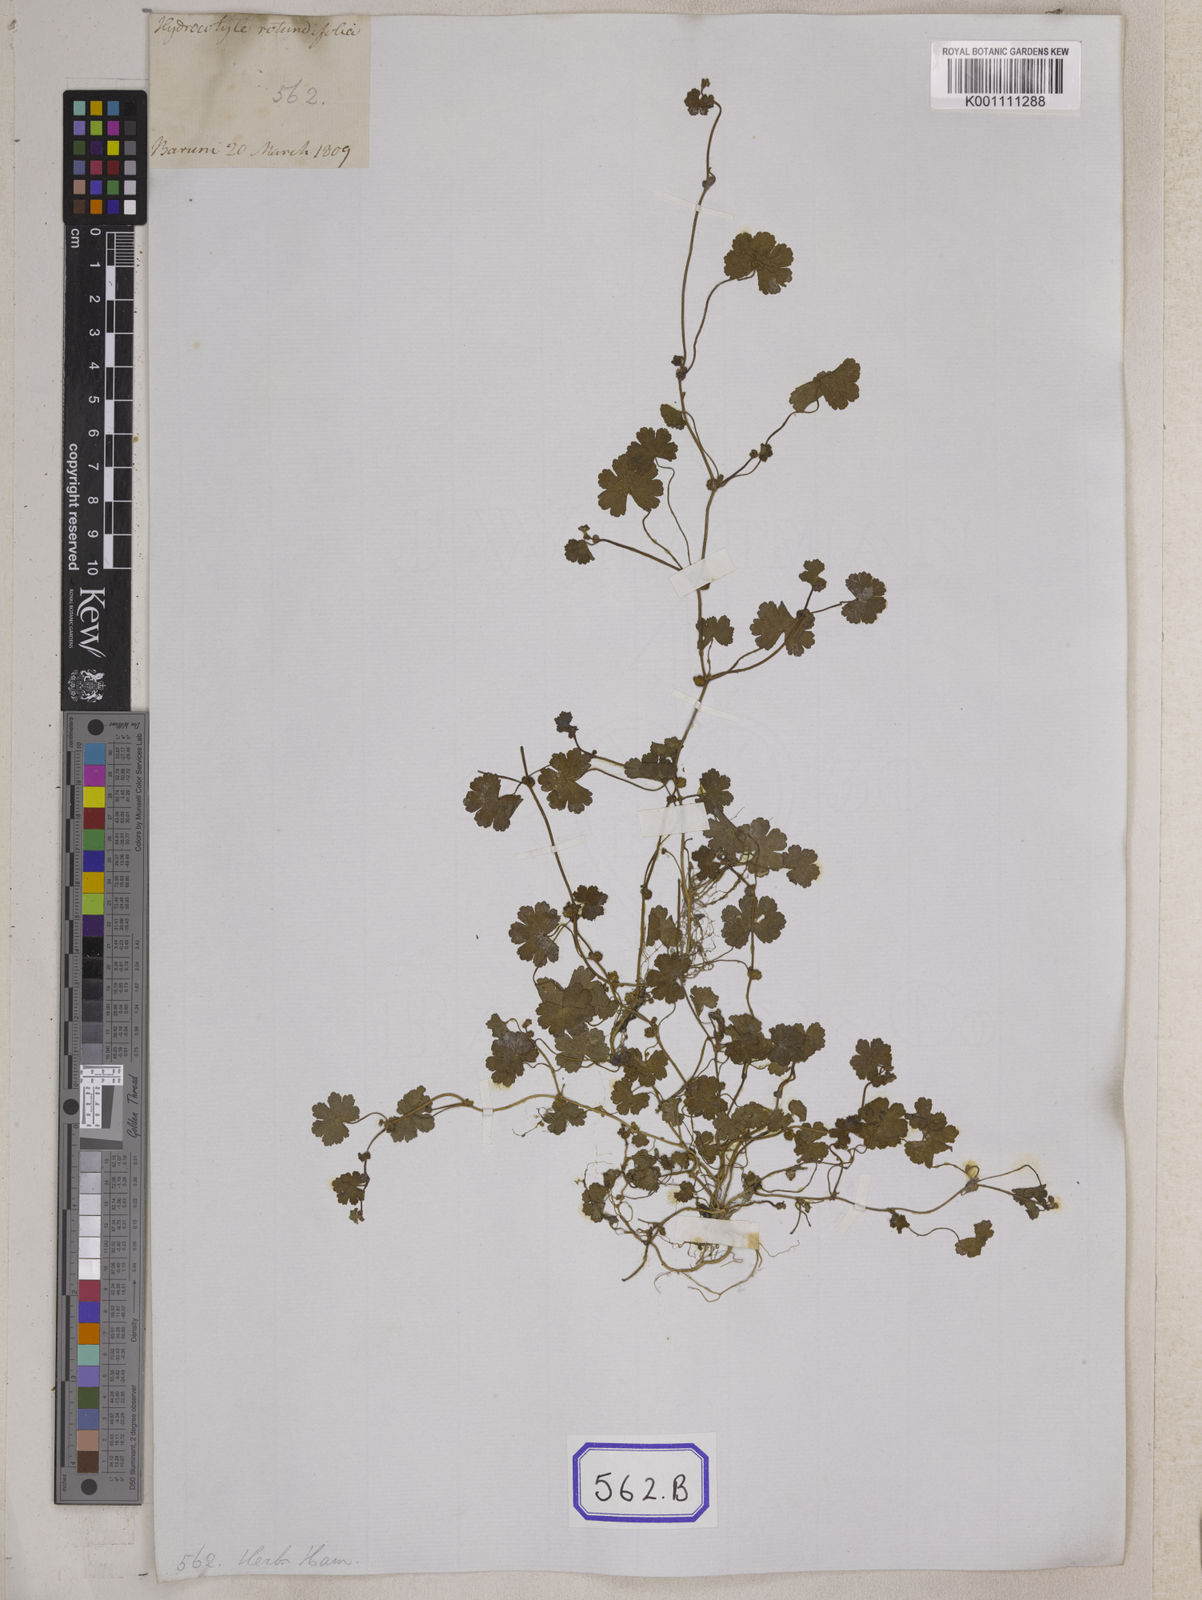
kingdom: Plantae
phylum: Tracheophyta
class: Magnoliopsida
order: Apiales
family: Araliaceae
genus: Hydrocotyle
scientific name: Hydrocotyle
